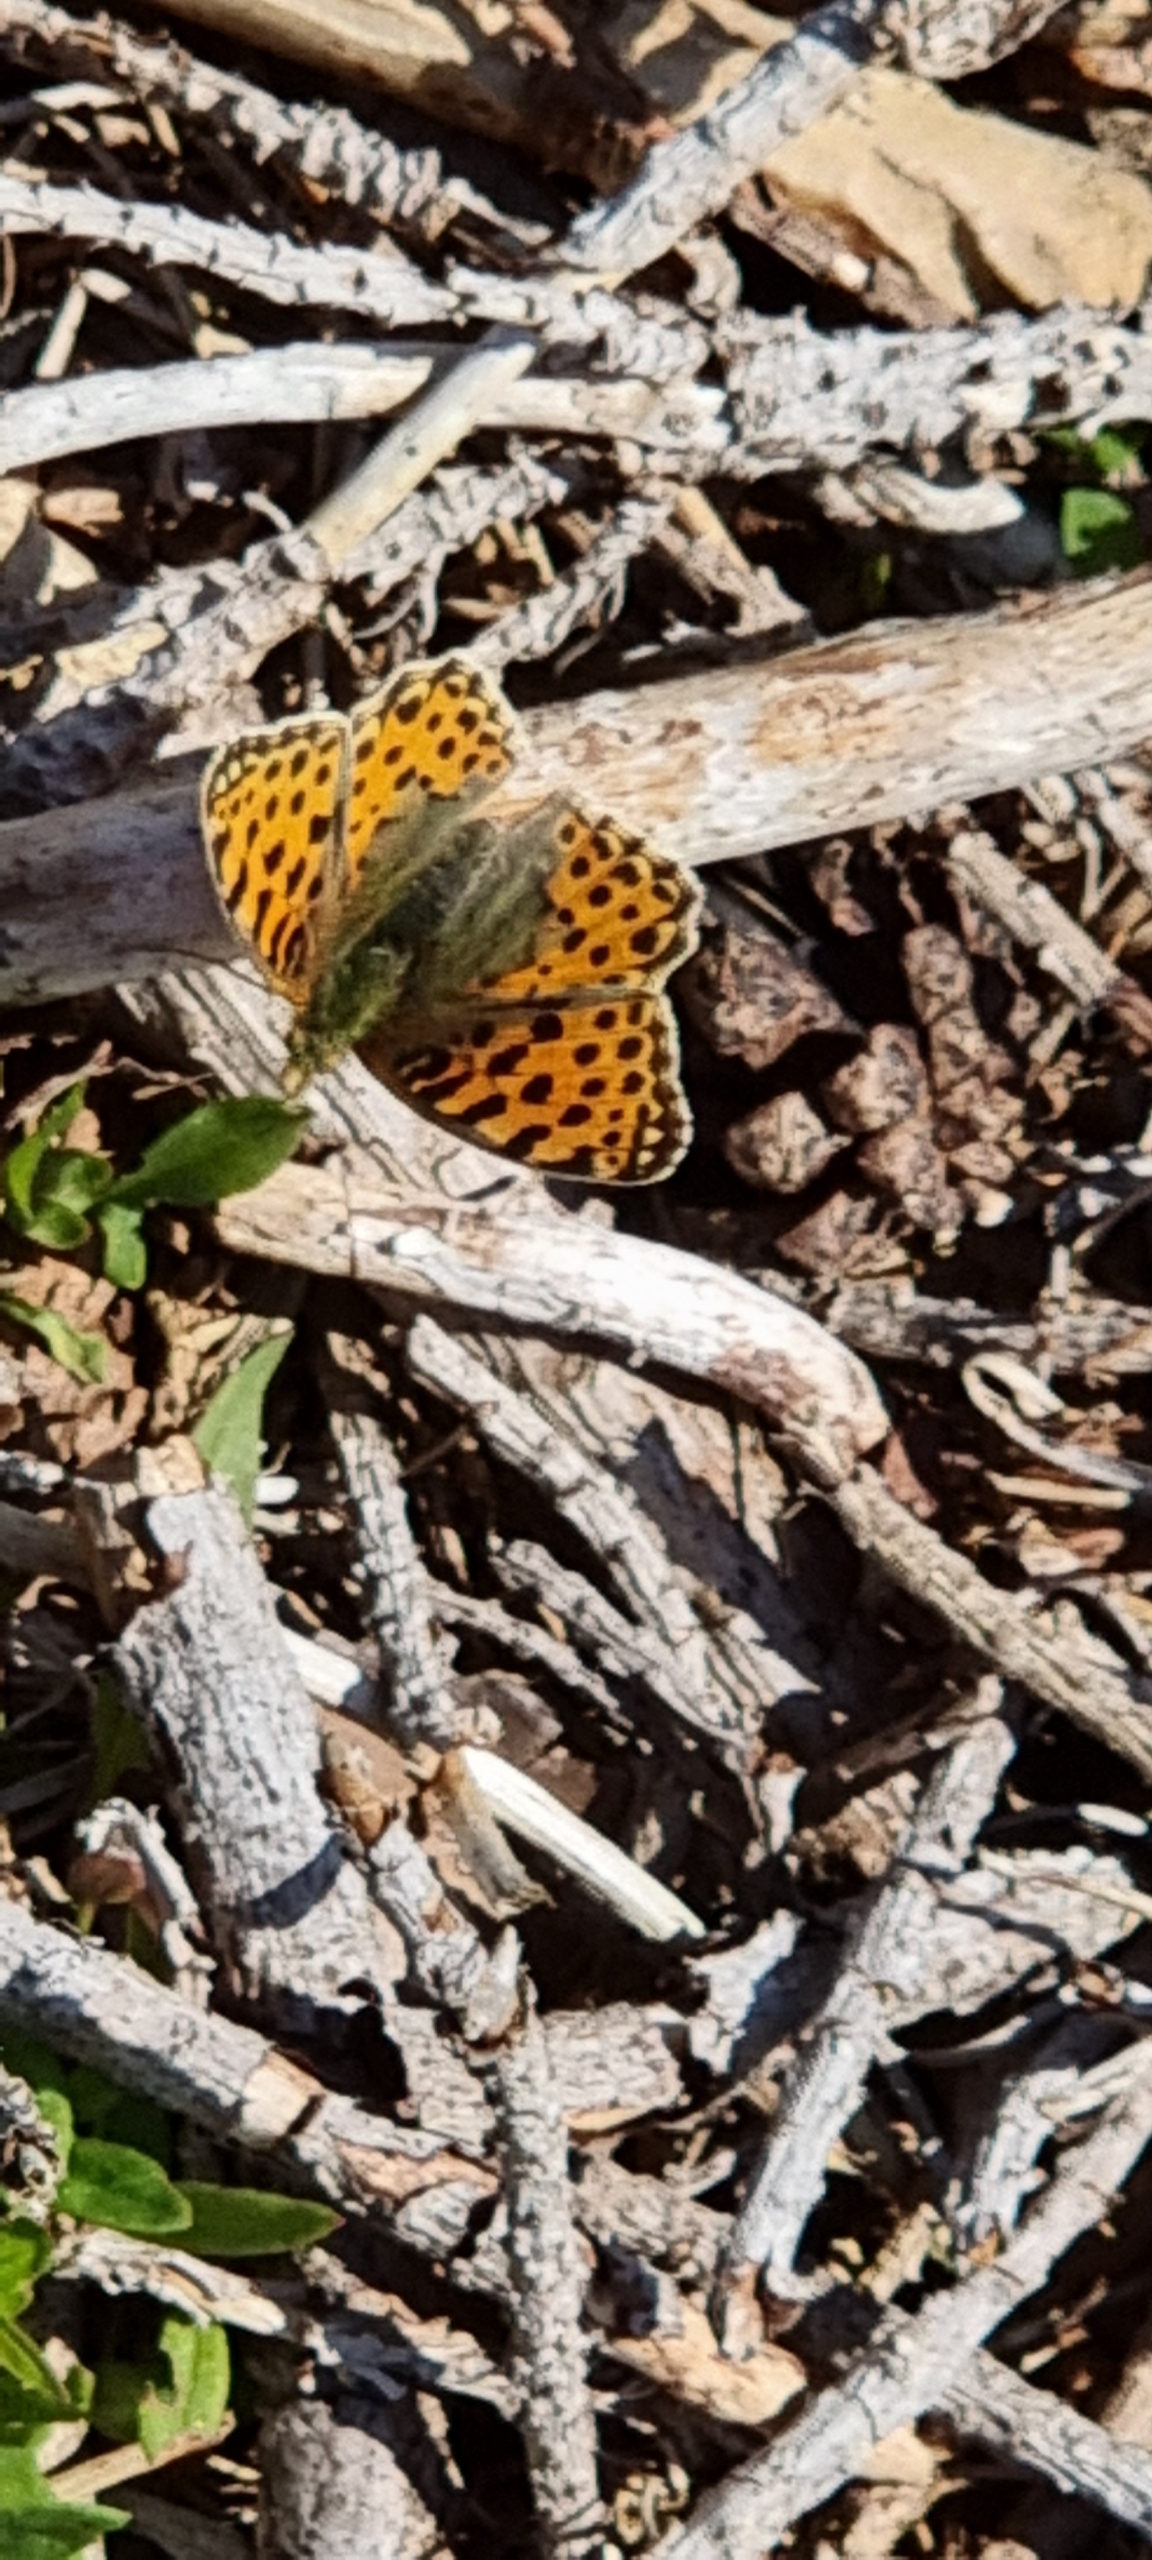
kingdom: Animalia
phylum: Arthropoda
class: Insecta
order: Lepidoptera
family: Nymphalidae
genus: Issoria
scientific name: Issoria lathonia
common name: Storplettet perlemorsommerfugl
